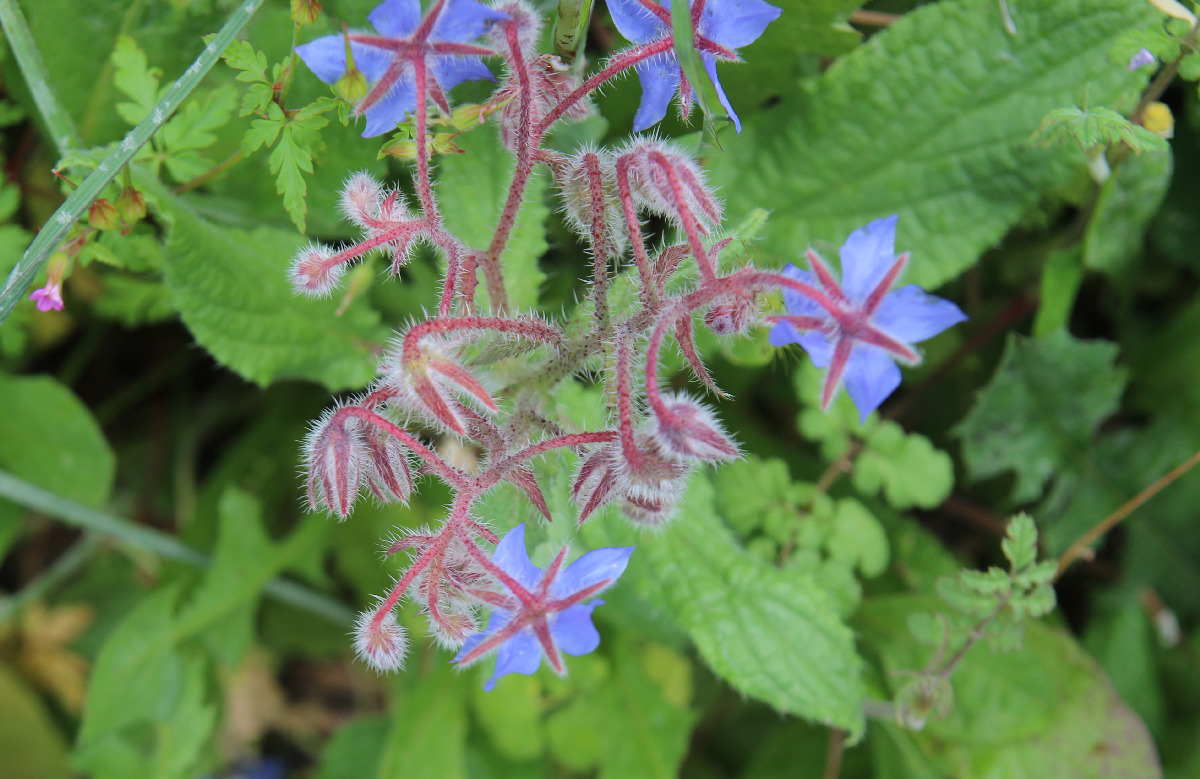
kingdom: Plantae
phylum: Tracheophyta
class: Magnoliopsida
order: Boraginales
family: Boraginaceae
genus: Borago
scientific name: Borago officinalis
